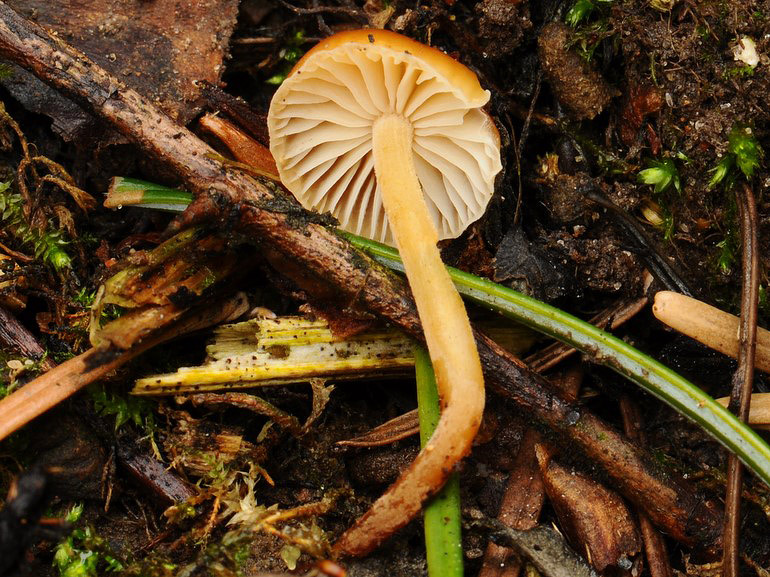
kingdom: Fungi
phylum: Basidiomycota
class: Agaricomycetes
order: Agaricales
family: Physalacriaceae
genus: Flammulina
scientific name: Flammulina velutipes
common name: gul fløjlsfod
